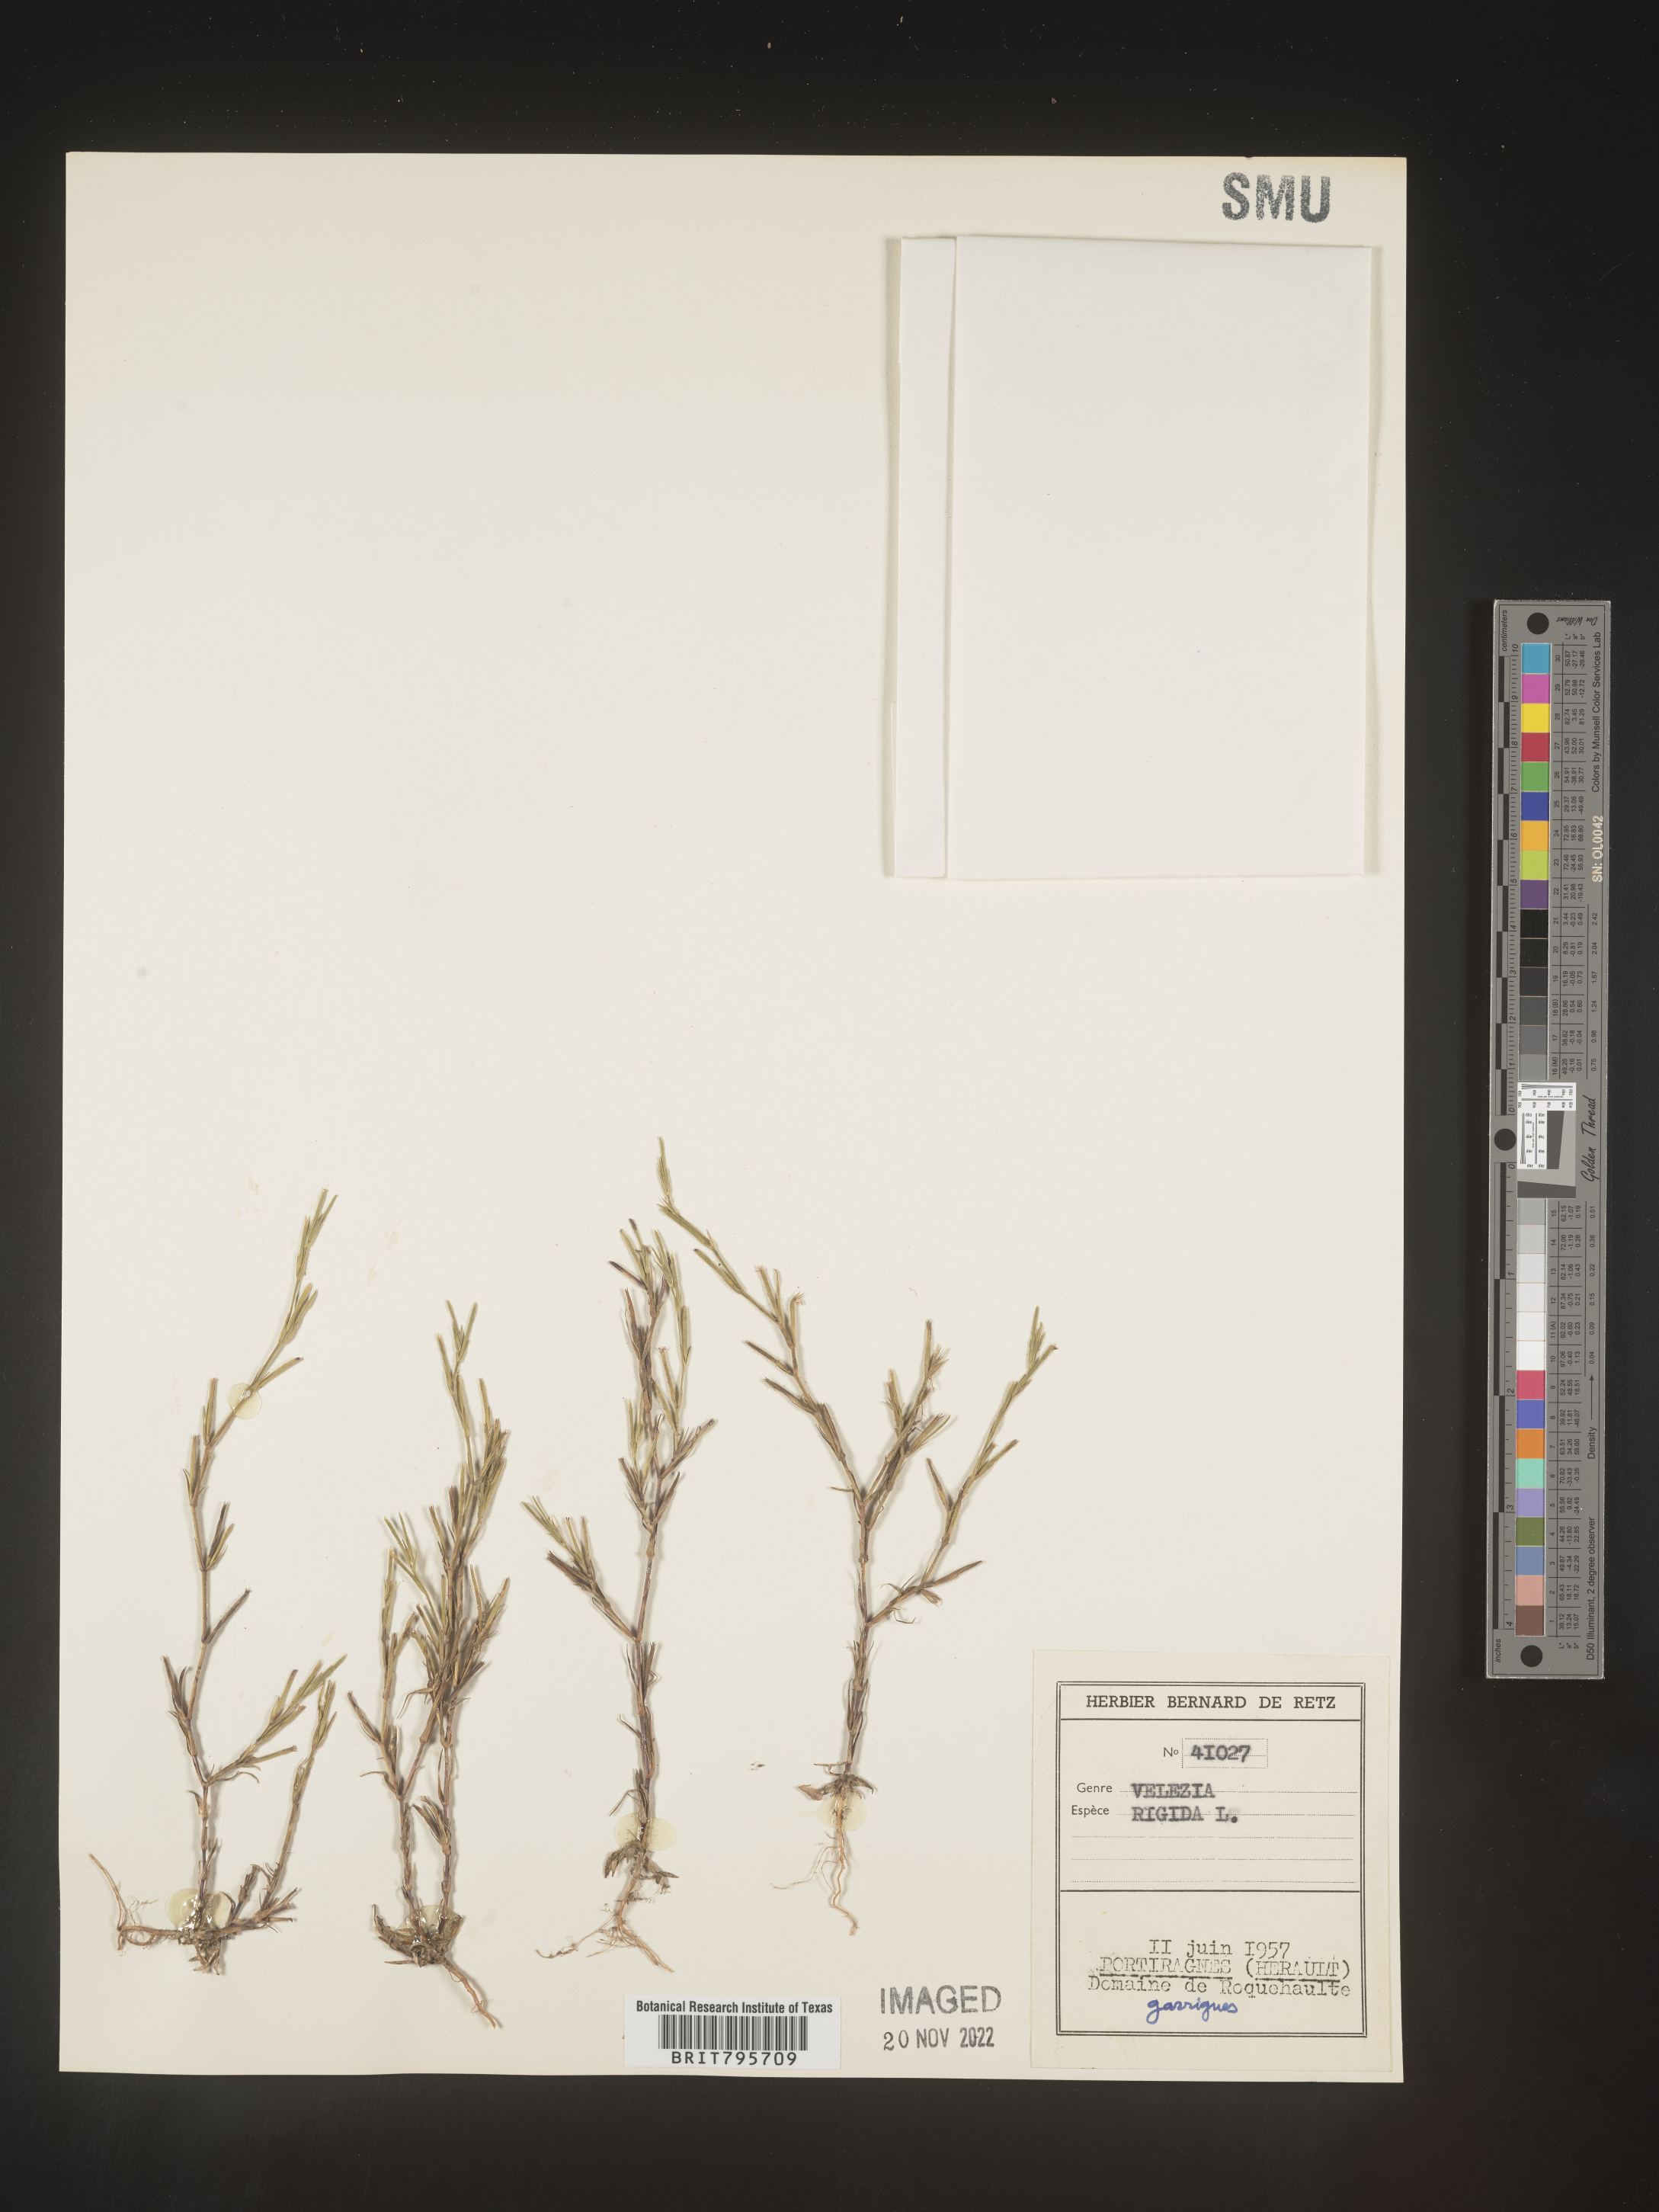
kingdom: Plantae
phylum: Tracheophyta
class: Magnoliopsida
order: Caryophyllales
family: Caryophyllaceae
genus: Dianthus
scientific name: Dianthus
